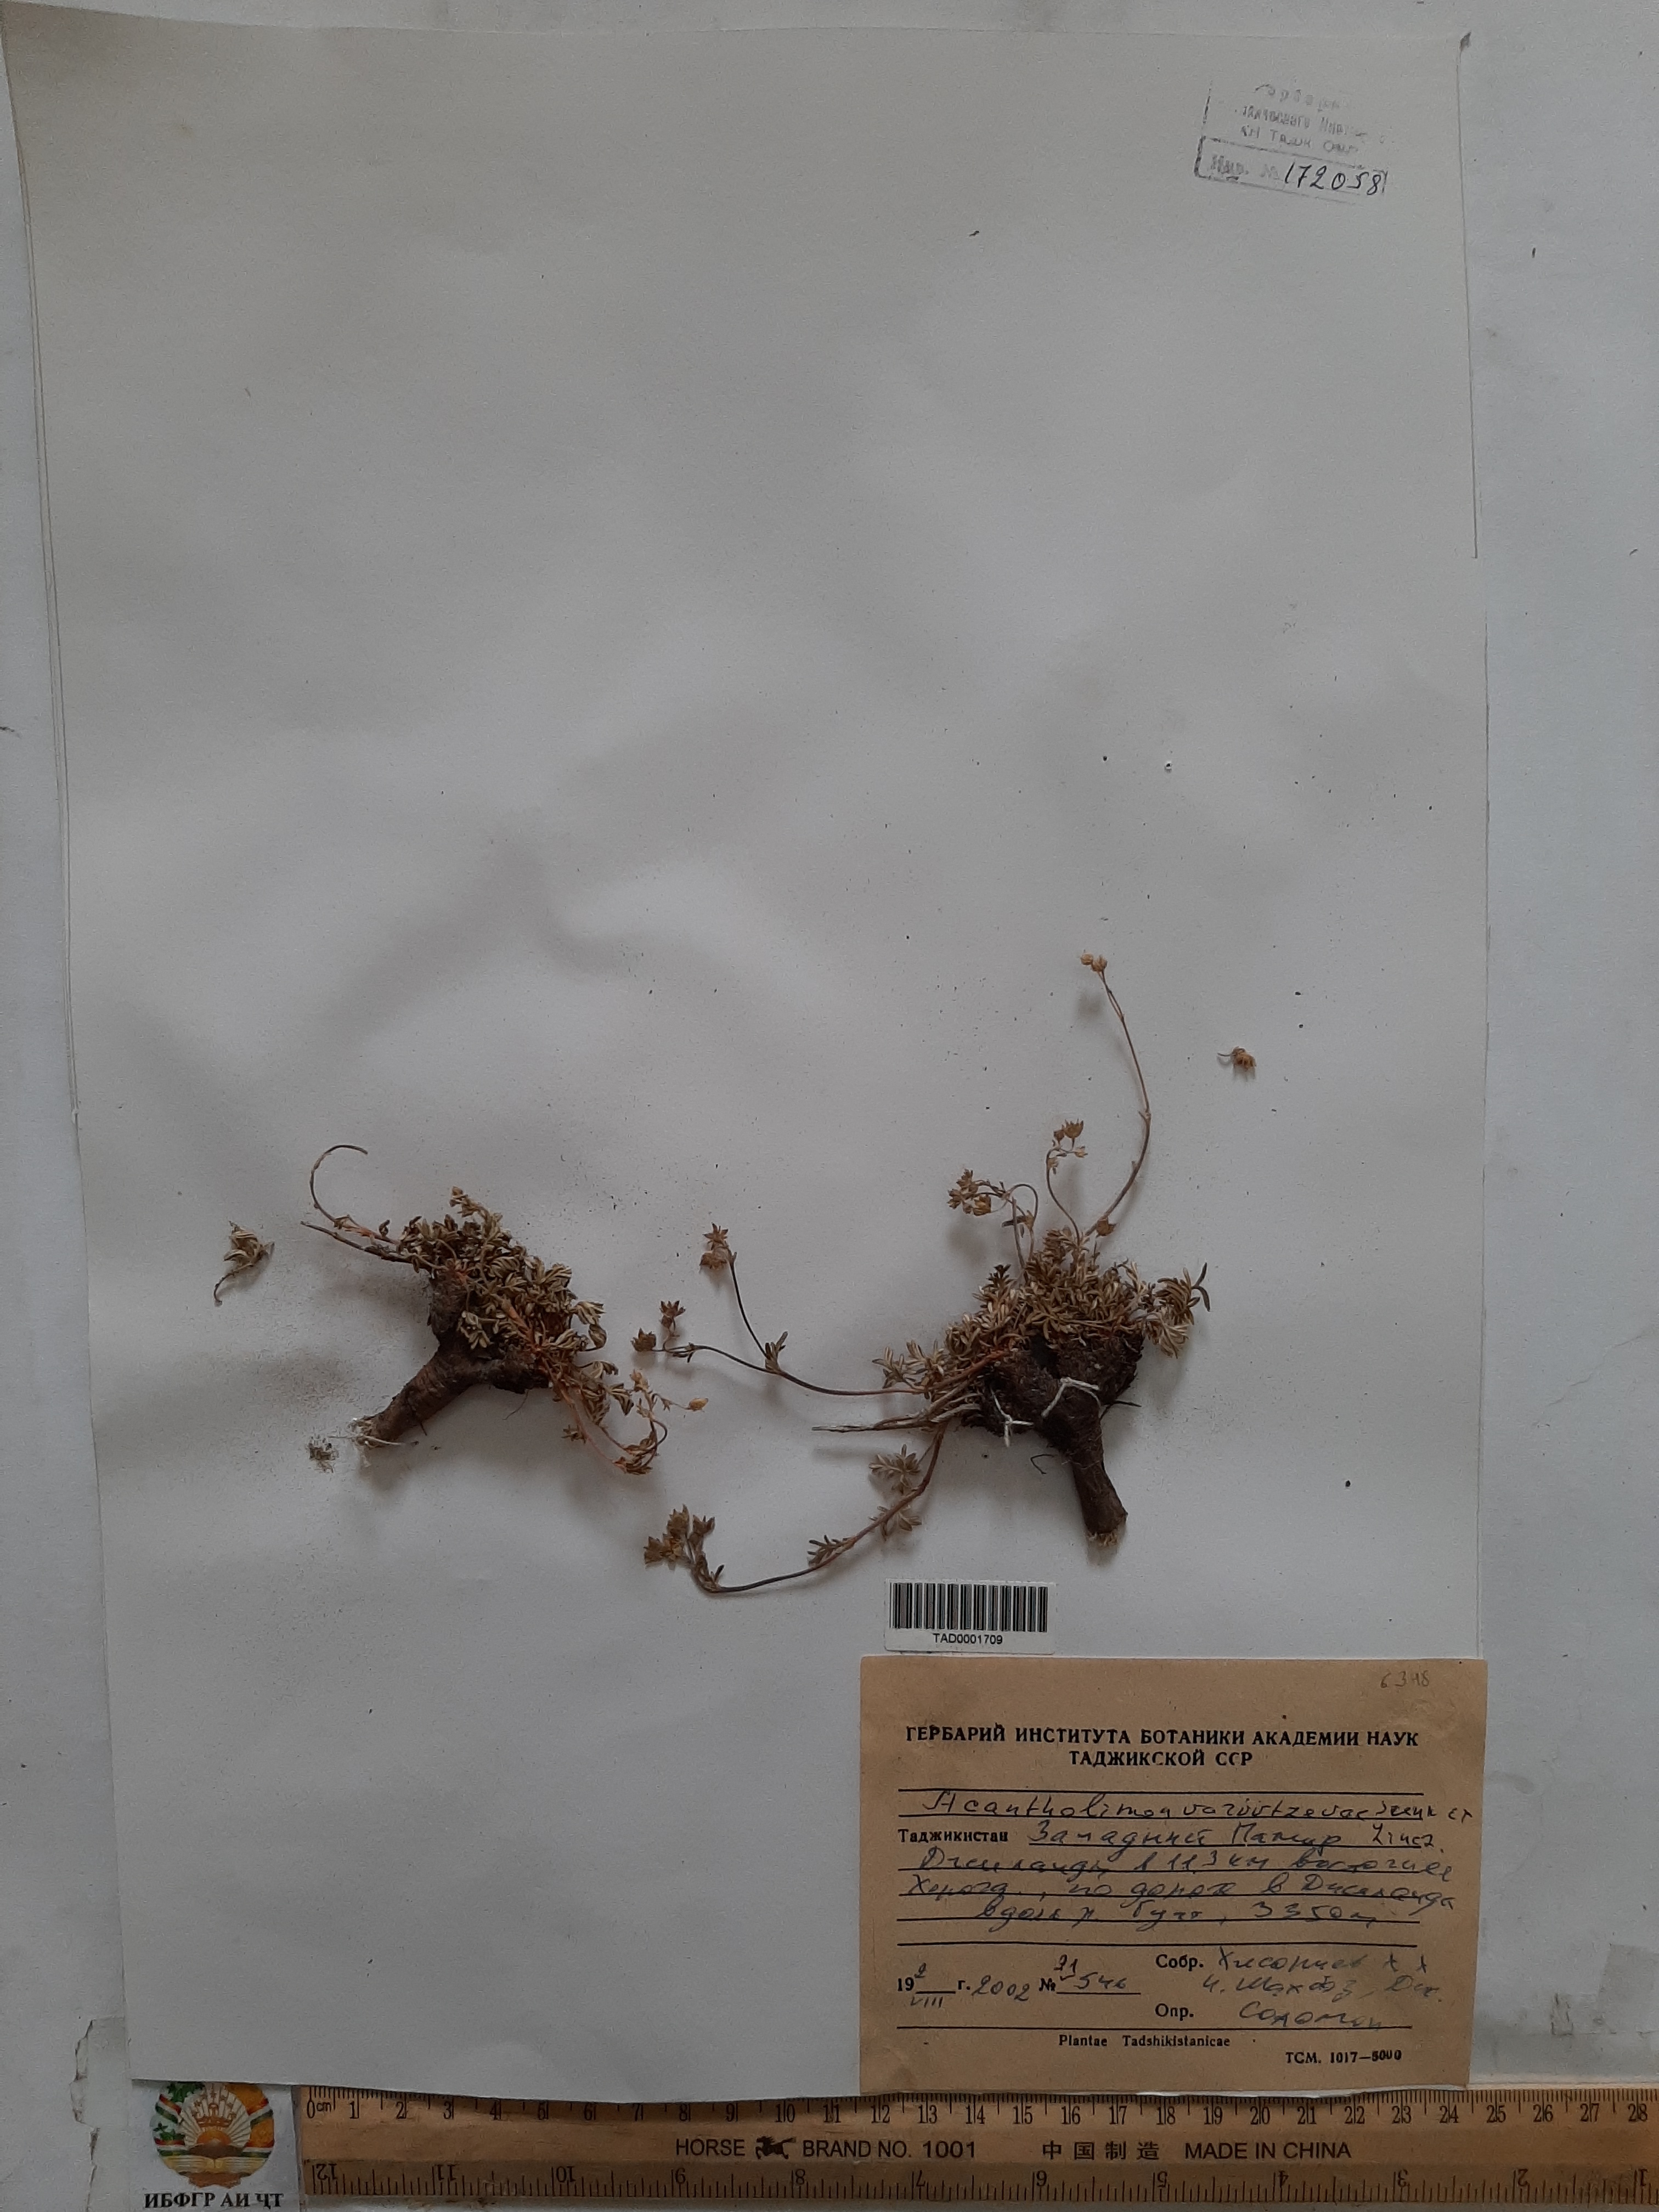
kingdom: Plantae
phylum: Tracheophyta
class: Magnoliopsida
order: Caryophyllales
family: Plumbaginaceae
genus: Acantholimon
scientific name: Acantholimon varivtzevae
